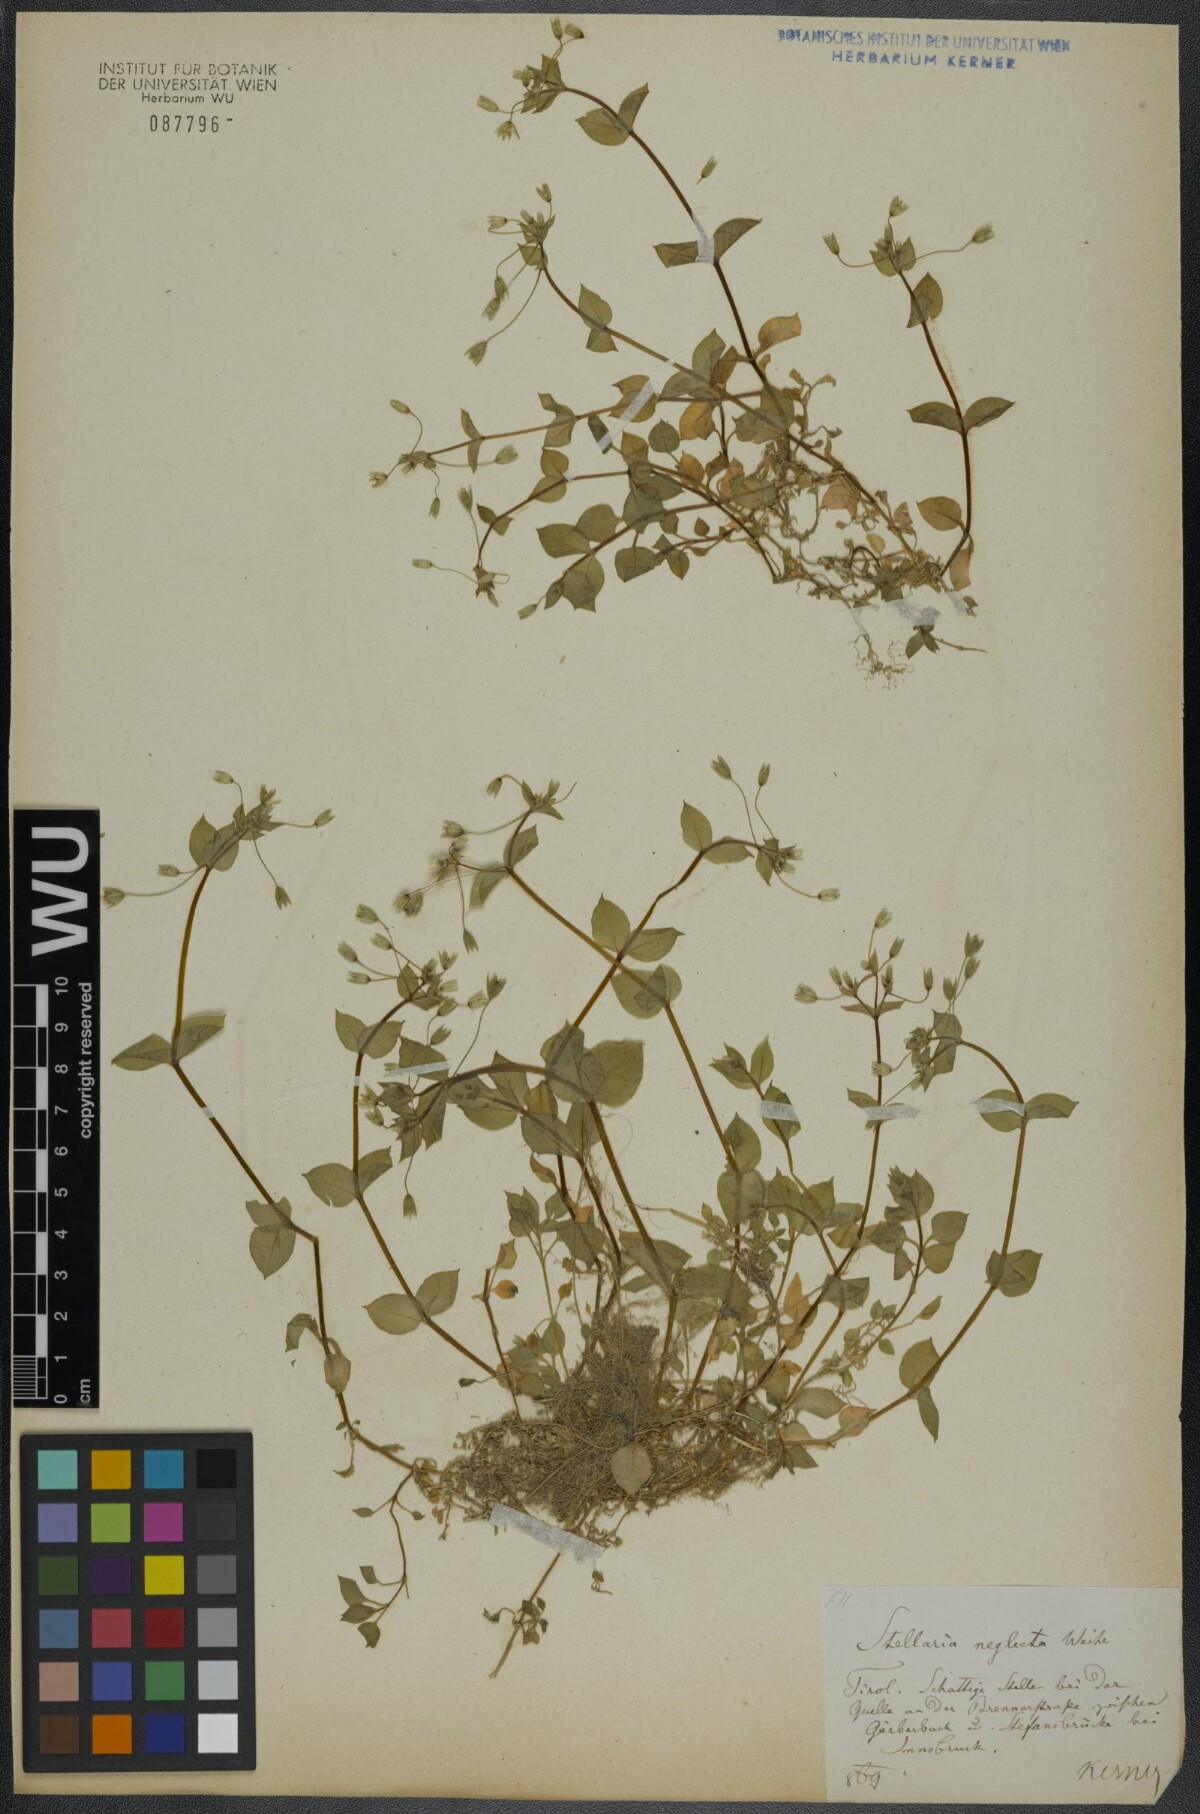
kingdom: Plantae
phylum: Tracheophyta
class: Magnoliopsida
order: Caryophyllales
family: Caryophyllaceae
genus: Stellaria
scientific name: Stellaria neglecta
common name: Greater chickweed
